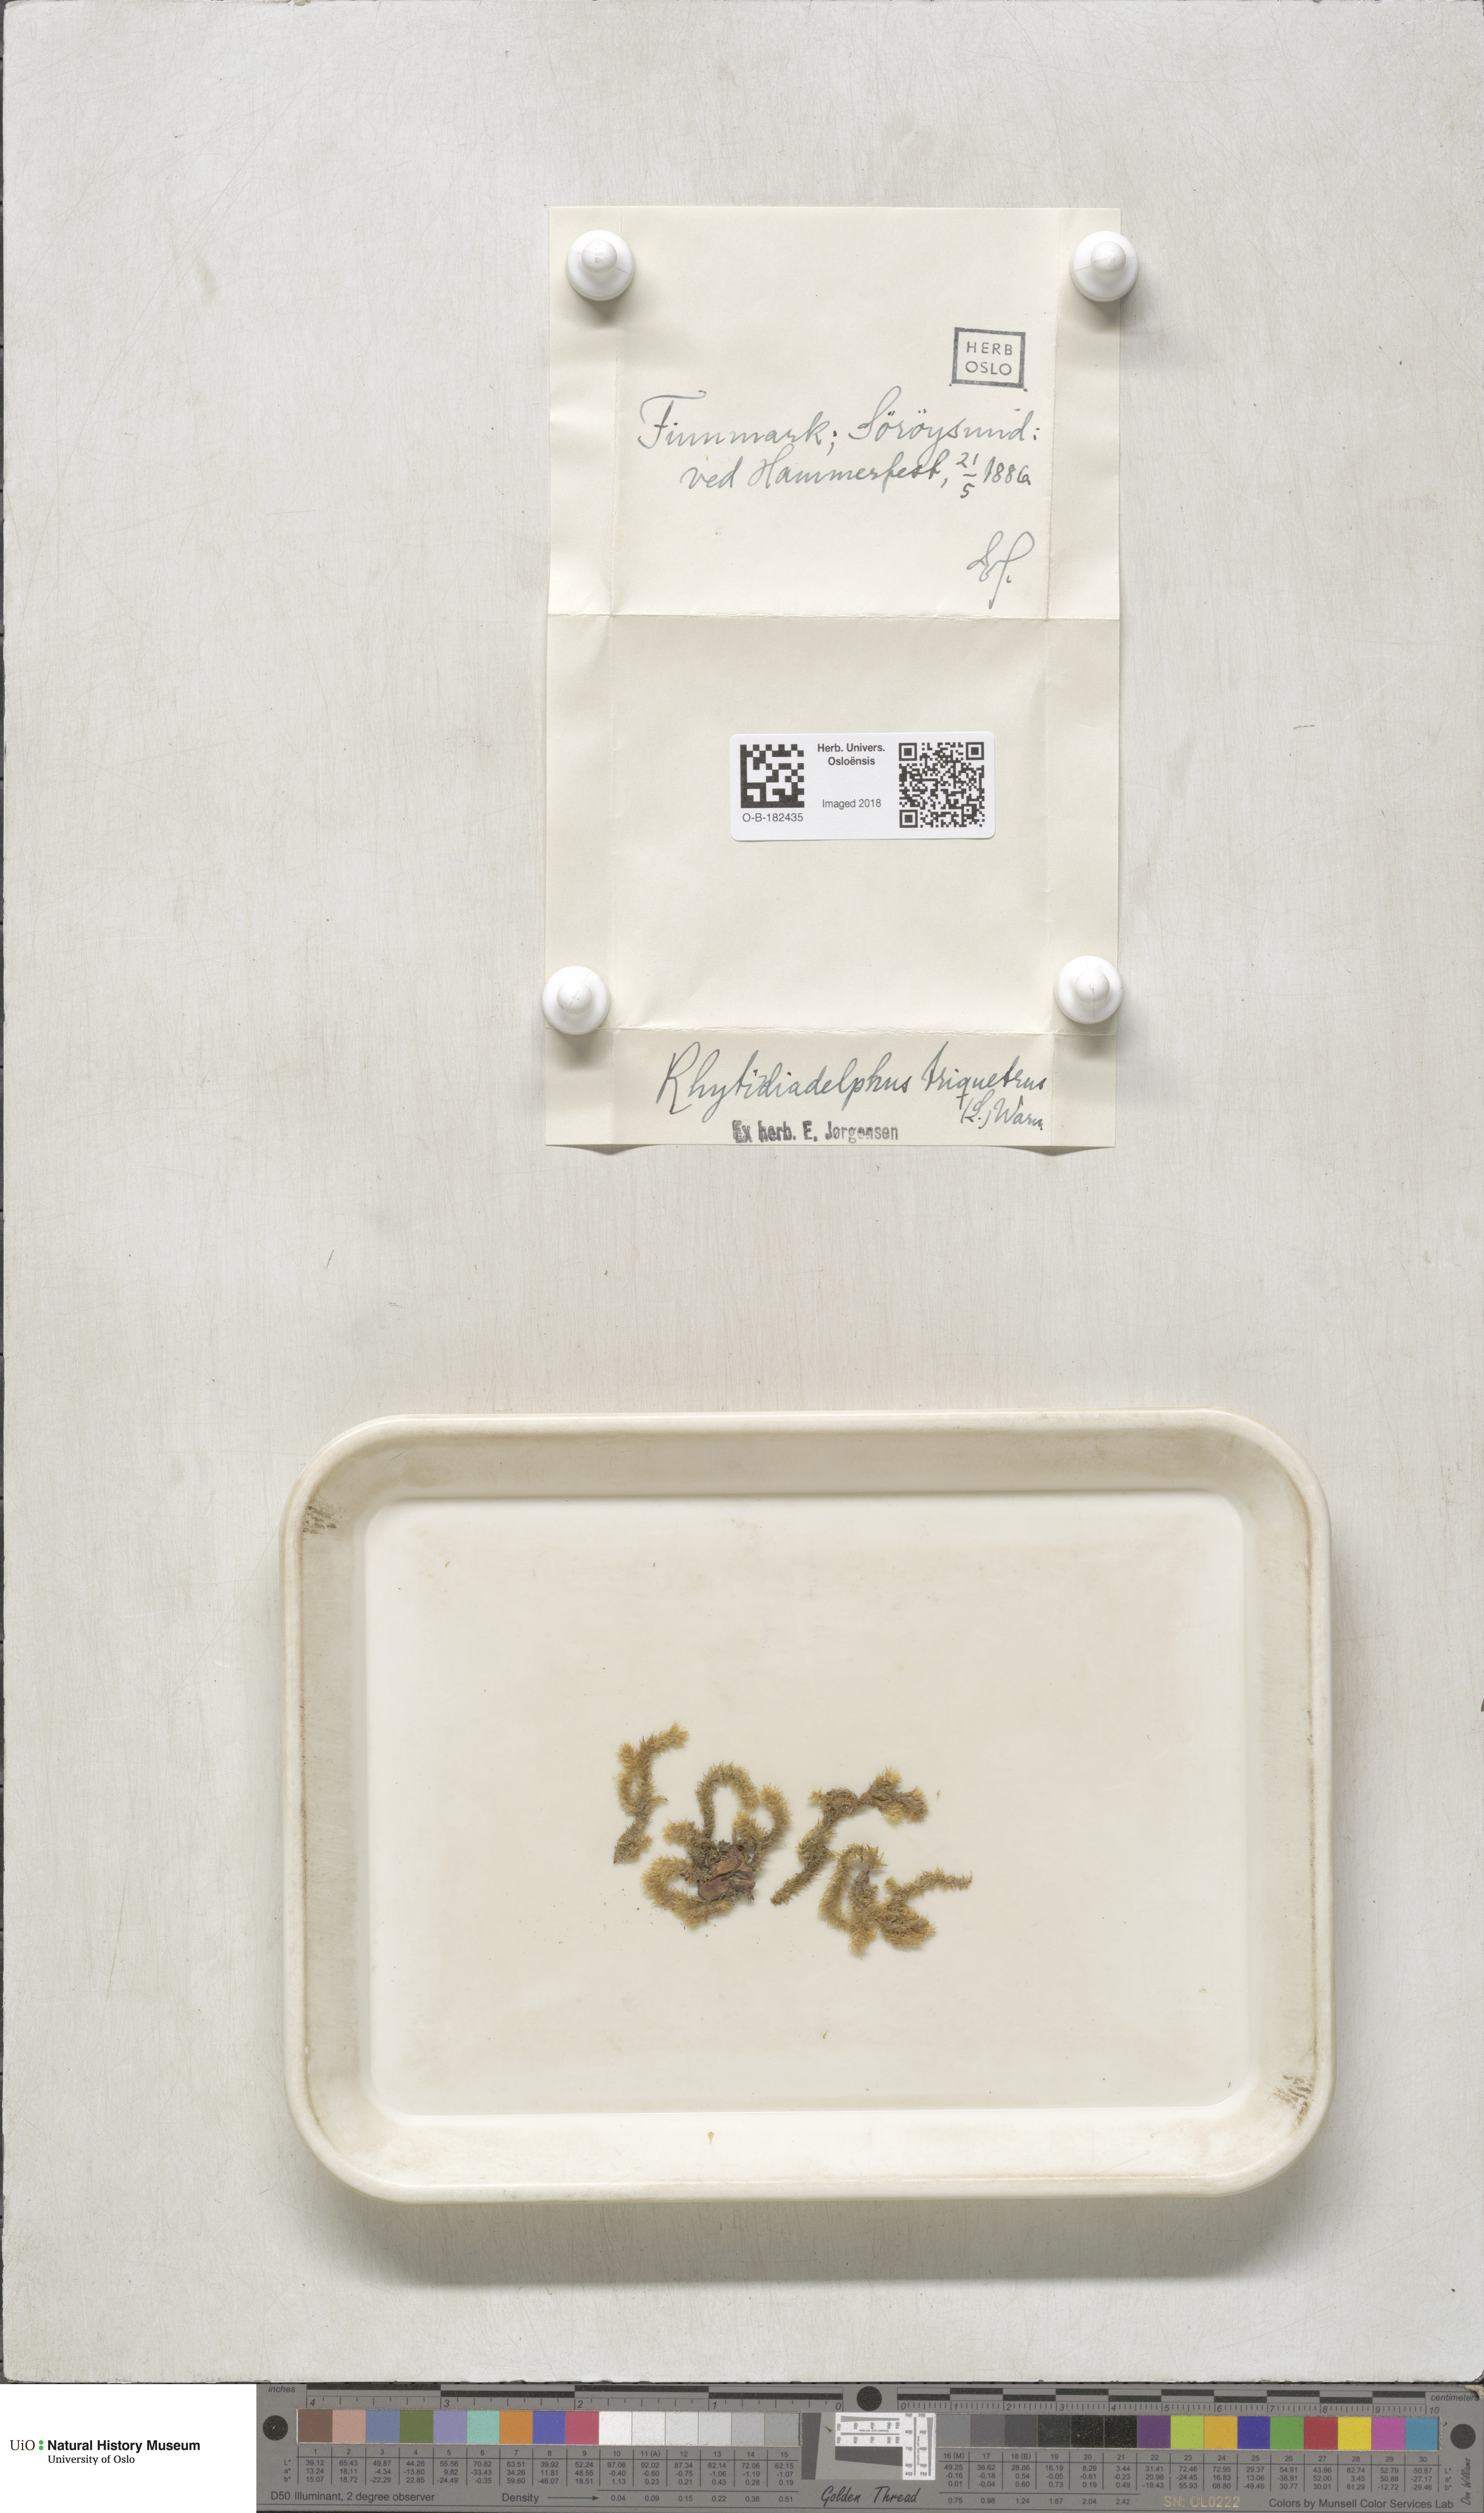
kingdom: Plantae
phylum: Bryophyta
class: Bryopsida
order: Hypnales
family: Hylocomiaceae
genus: Hylocomiadelphus
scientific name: Hylocomiadelphus triquetrus
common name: Rough goose neck moss
